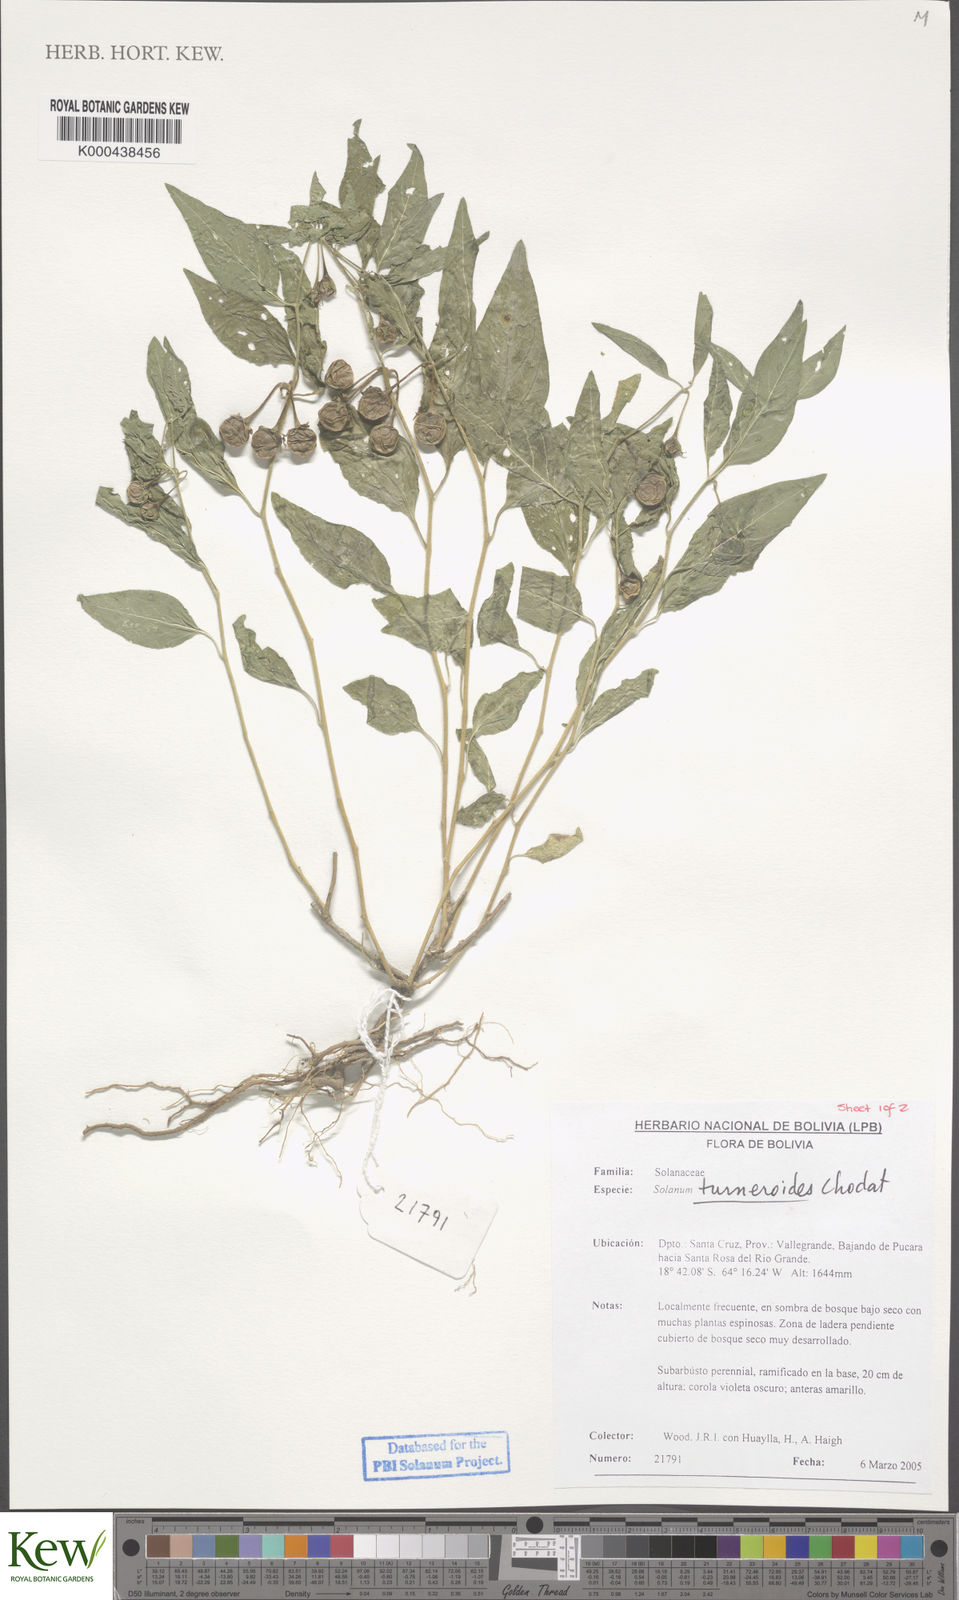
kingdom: Plantae
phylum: Tracheophyta
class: Magnoliopsida
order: Solanales
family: Solanaceae
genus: Solanum
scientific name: Solanum turneroides
